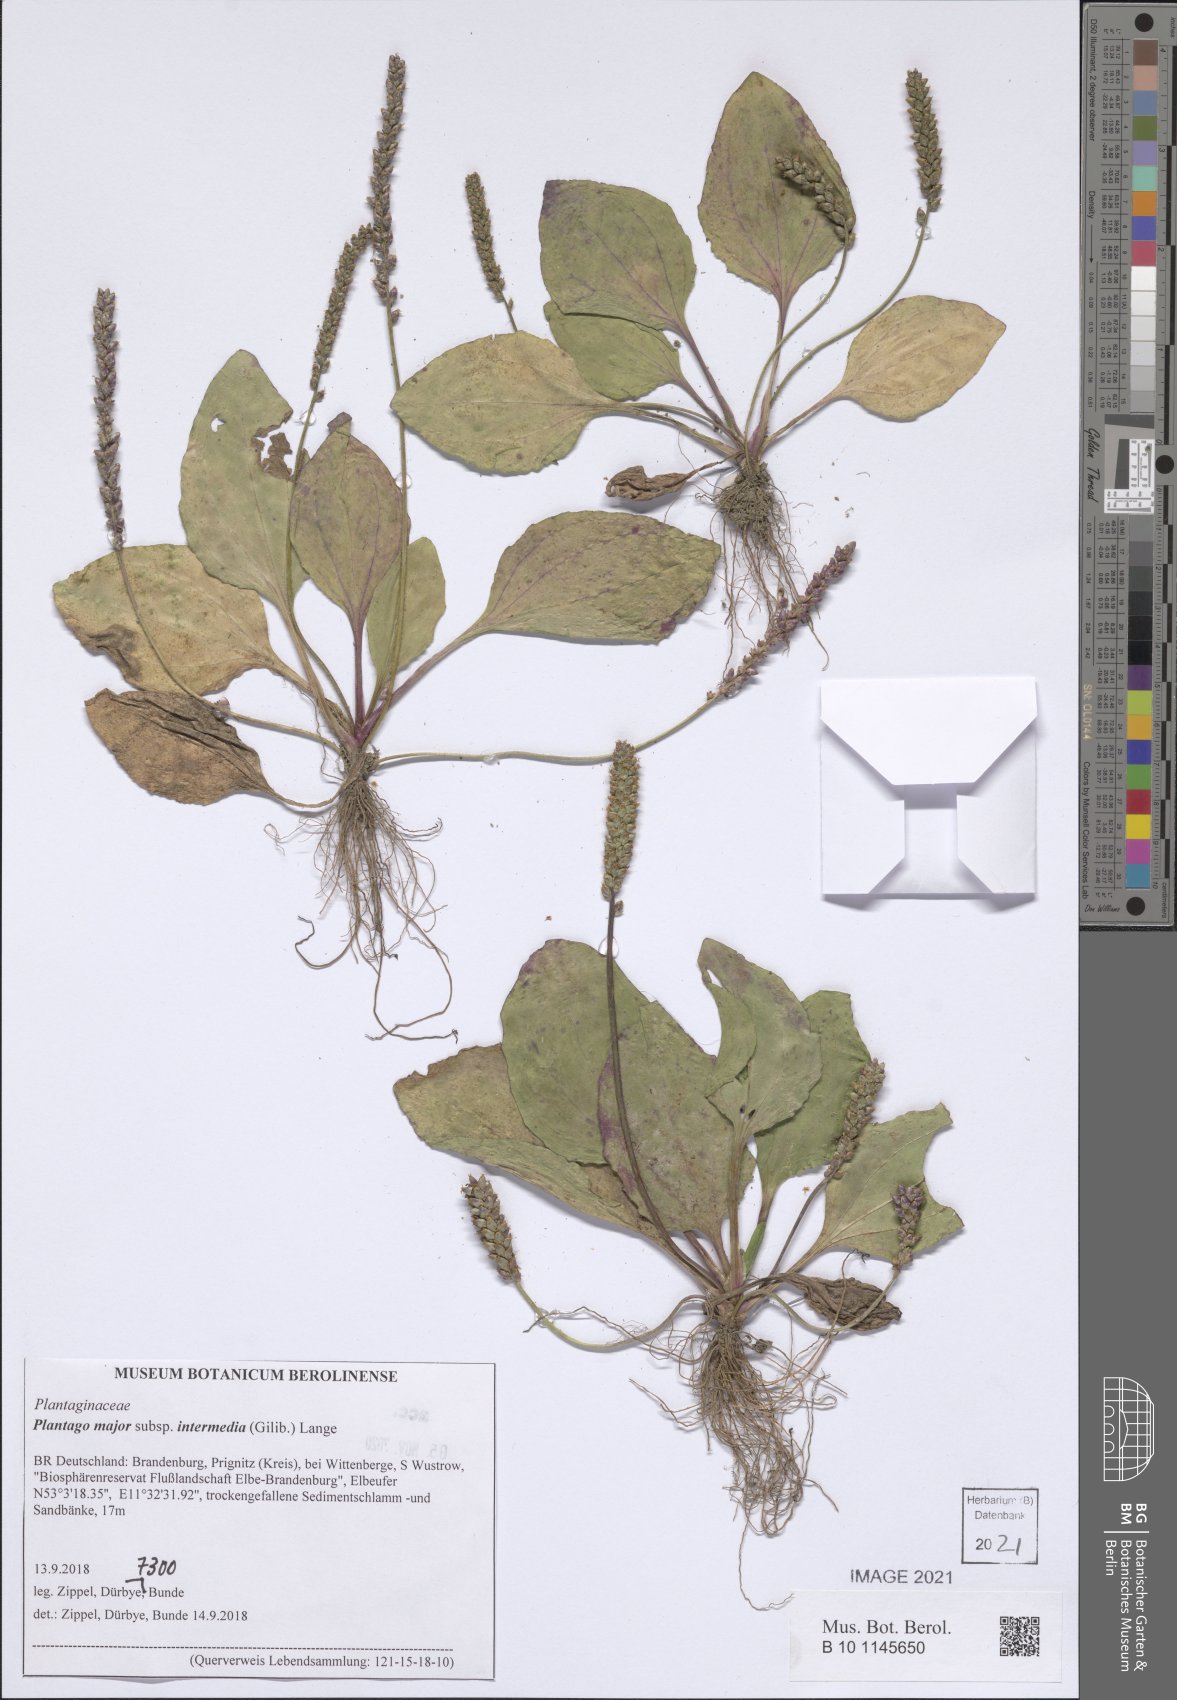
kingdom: Plantae
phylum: Tracheophyta
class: Magnoliopsida
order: Lamiales
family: Plantaginaceae
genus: Plantago
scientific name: Plantago uliginosa
